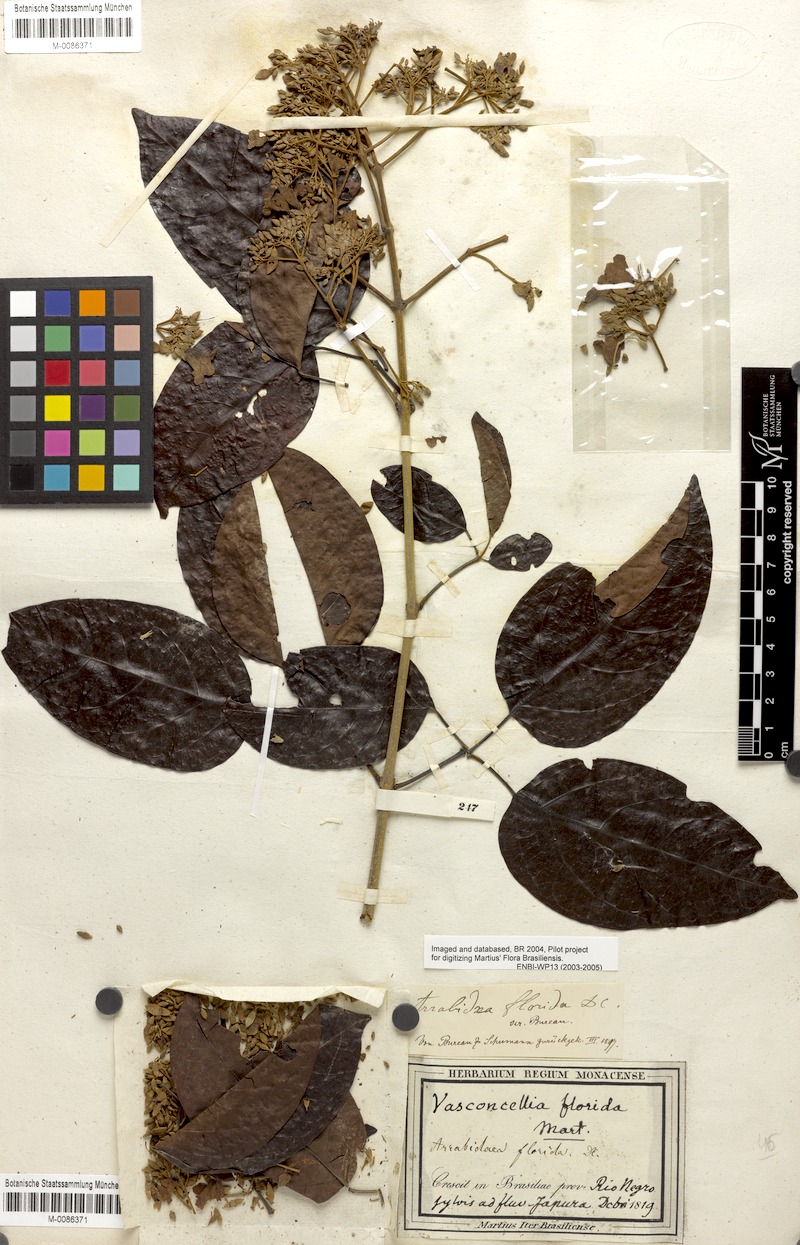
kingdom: Plantae
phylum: Tracheophyta
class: Magnoliopsida
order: Lamiales
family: Bignoniaceae
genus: Fridericia
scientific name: Fridericia florida
